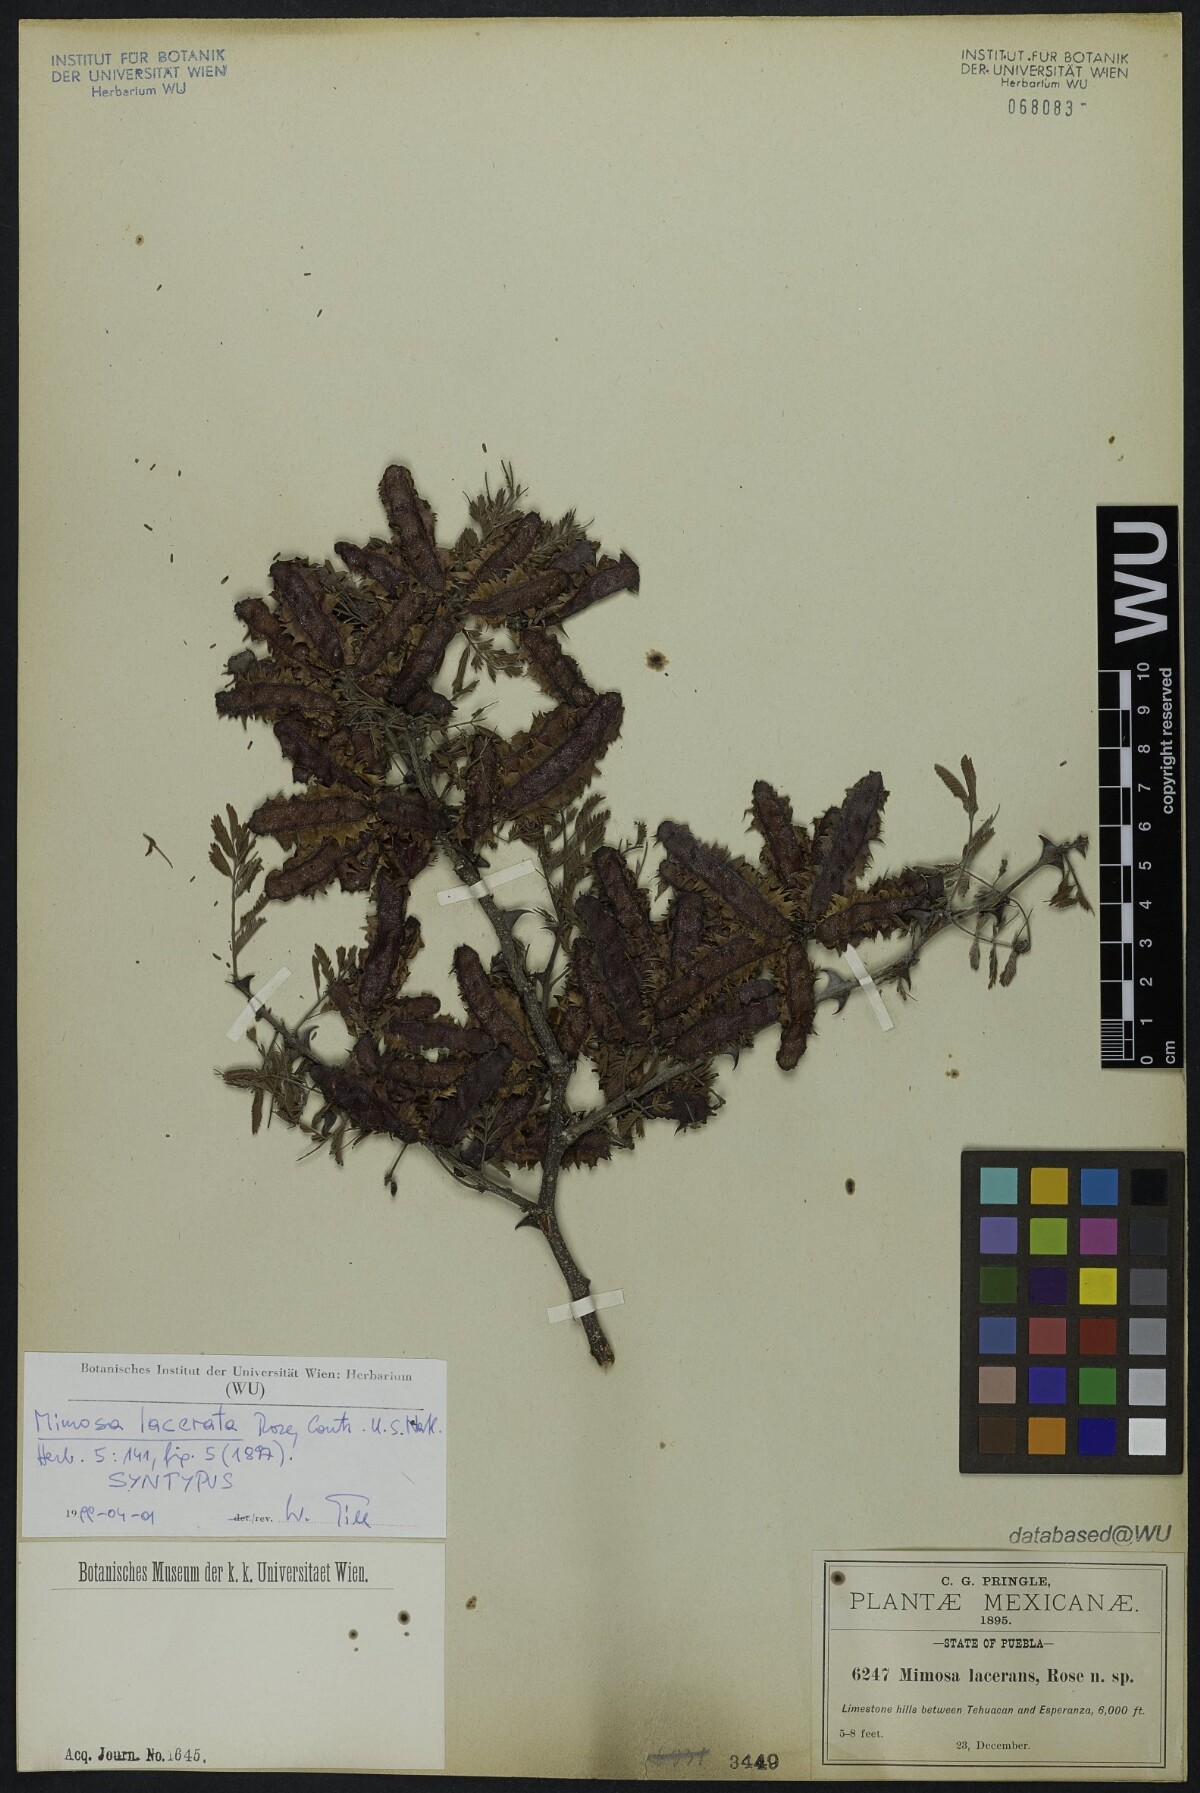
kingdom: Plantae
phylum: Tracheophyta
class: Magnoliopsida
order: Fabales
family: Fabaceae
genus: Mimosa
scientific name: Mimosa lacerata
